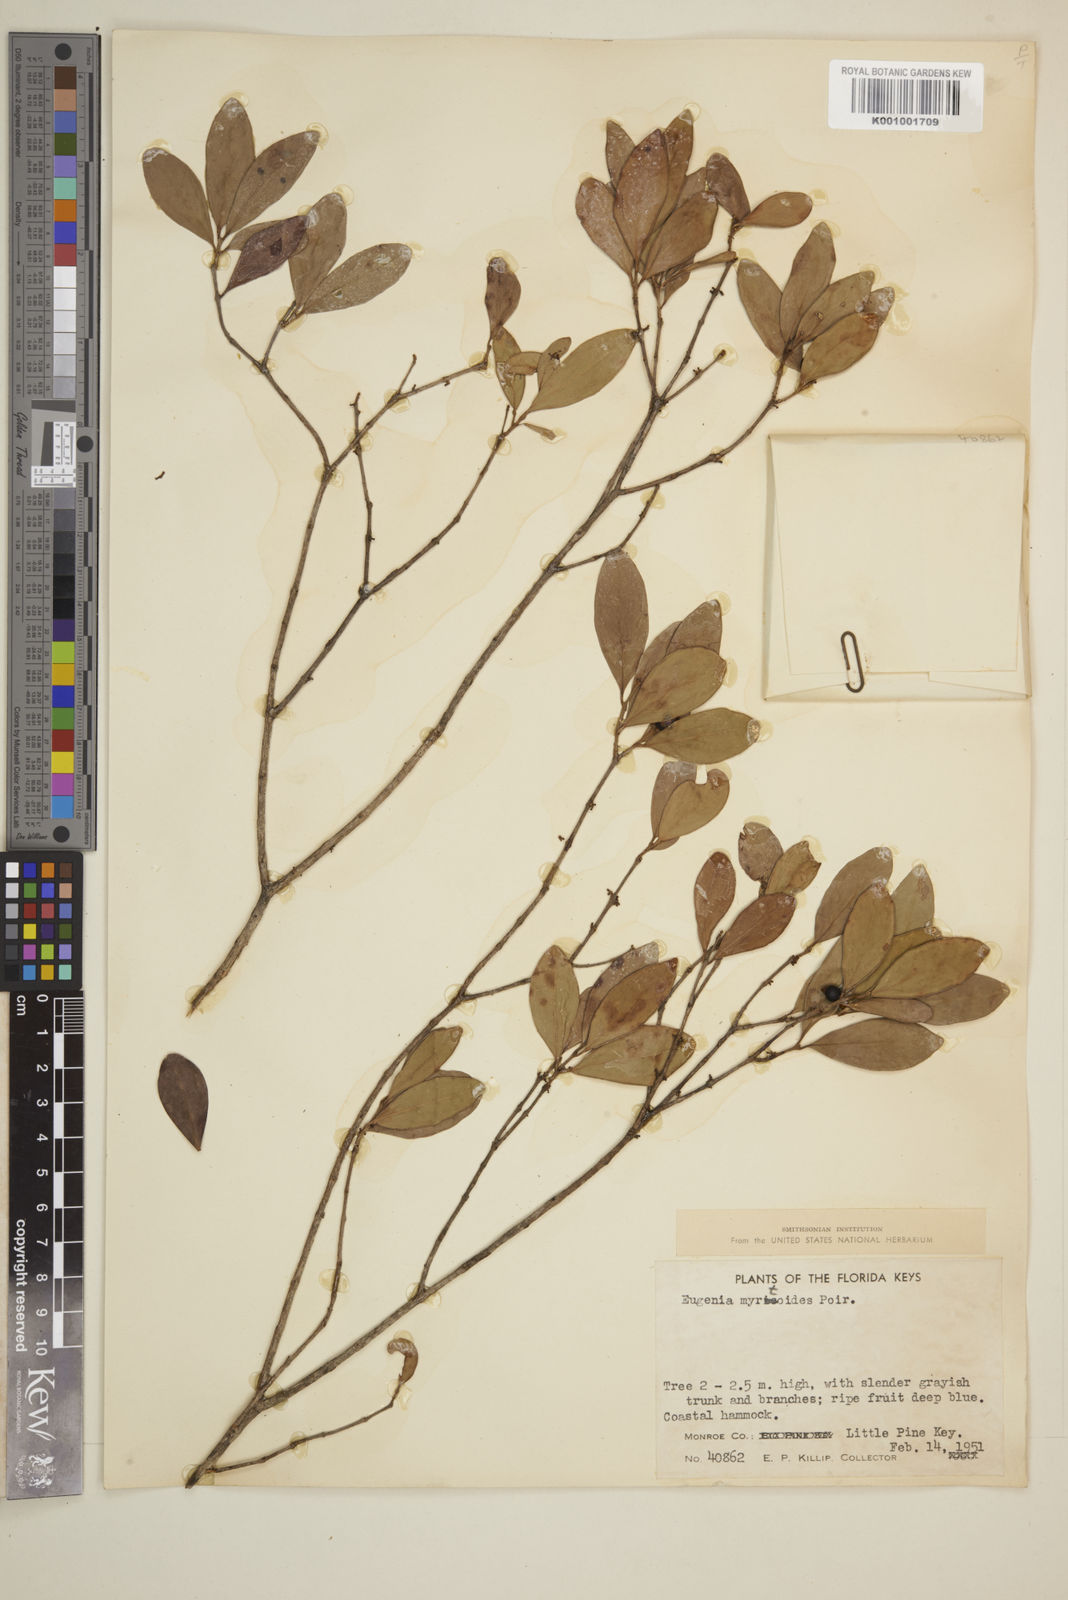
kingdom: Plantae
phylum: Tracheophyta
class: Magnoliopsida
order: Myrtales
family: Myrtaceae
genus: Eugenia
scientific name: Eugenia buxifolia
